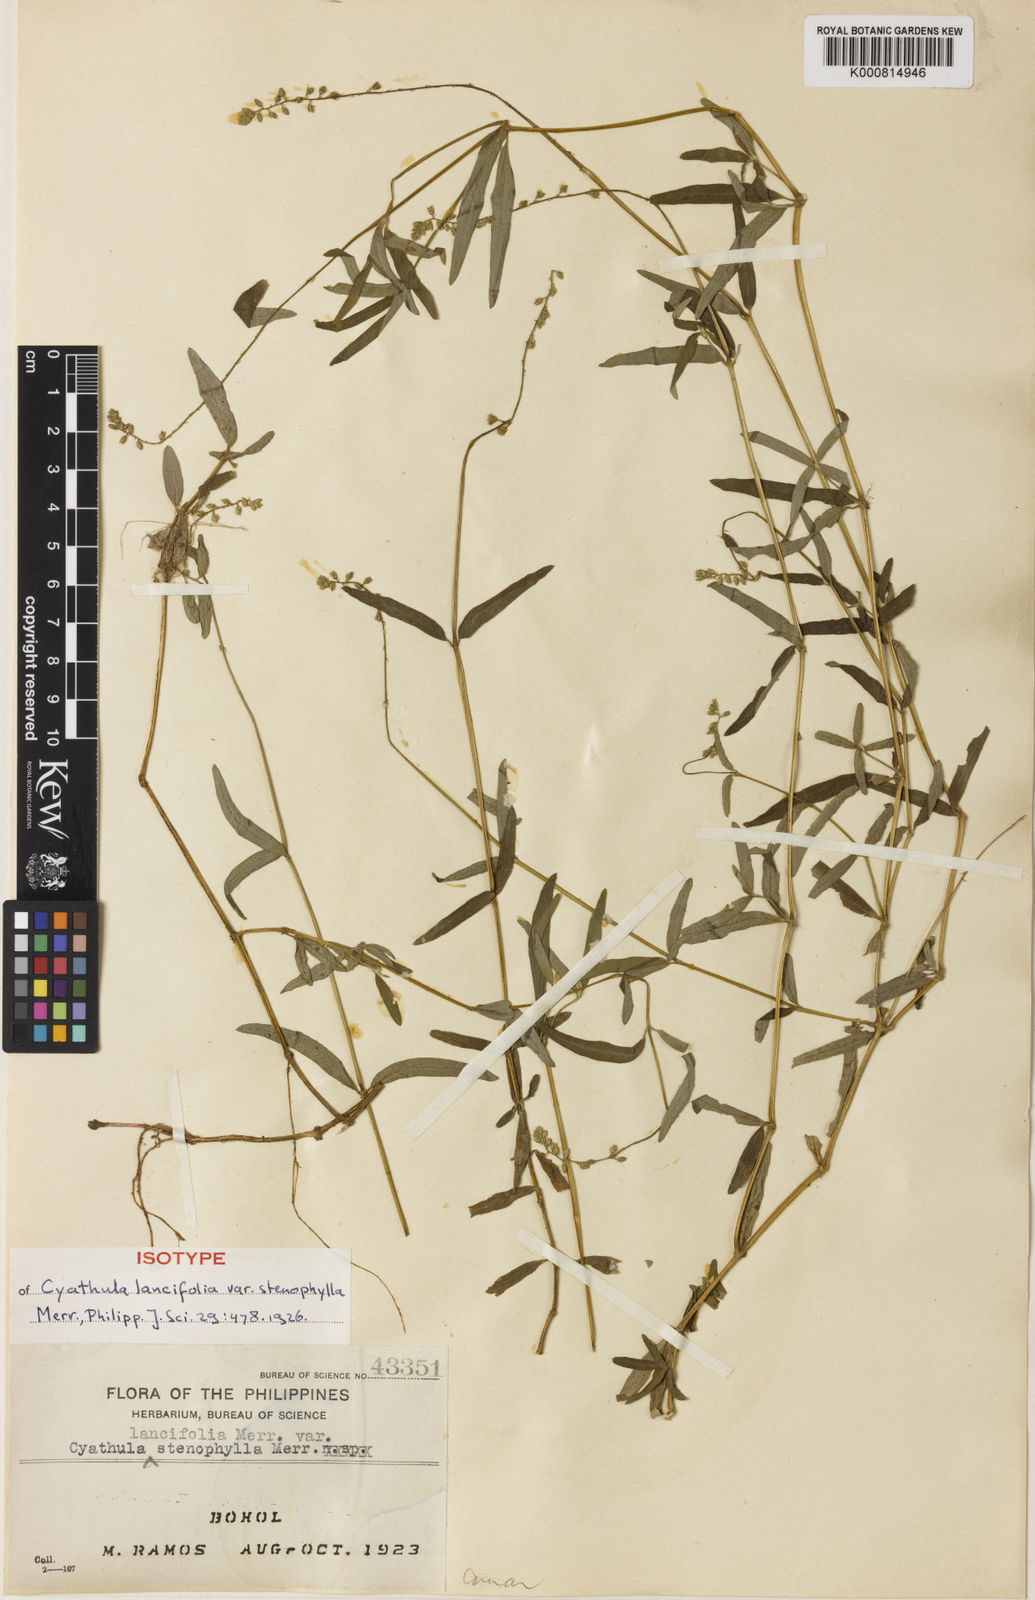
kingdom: Plantae
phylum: Tracheophyta
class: Magnoliopsida
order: Caryophyllales
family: Amaranthaceae
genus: Cyathula
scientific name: Cyathula prostrata
